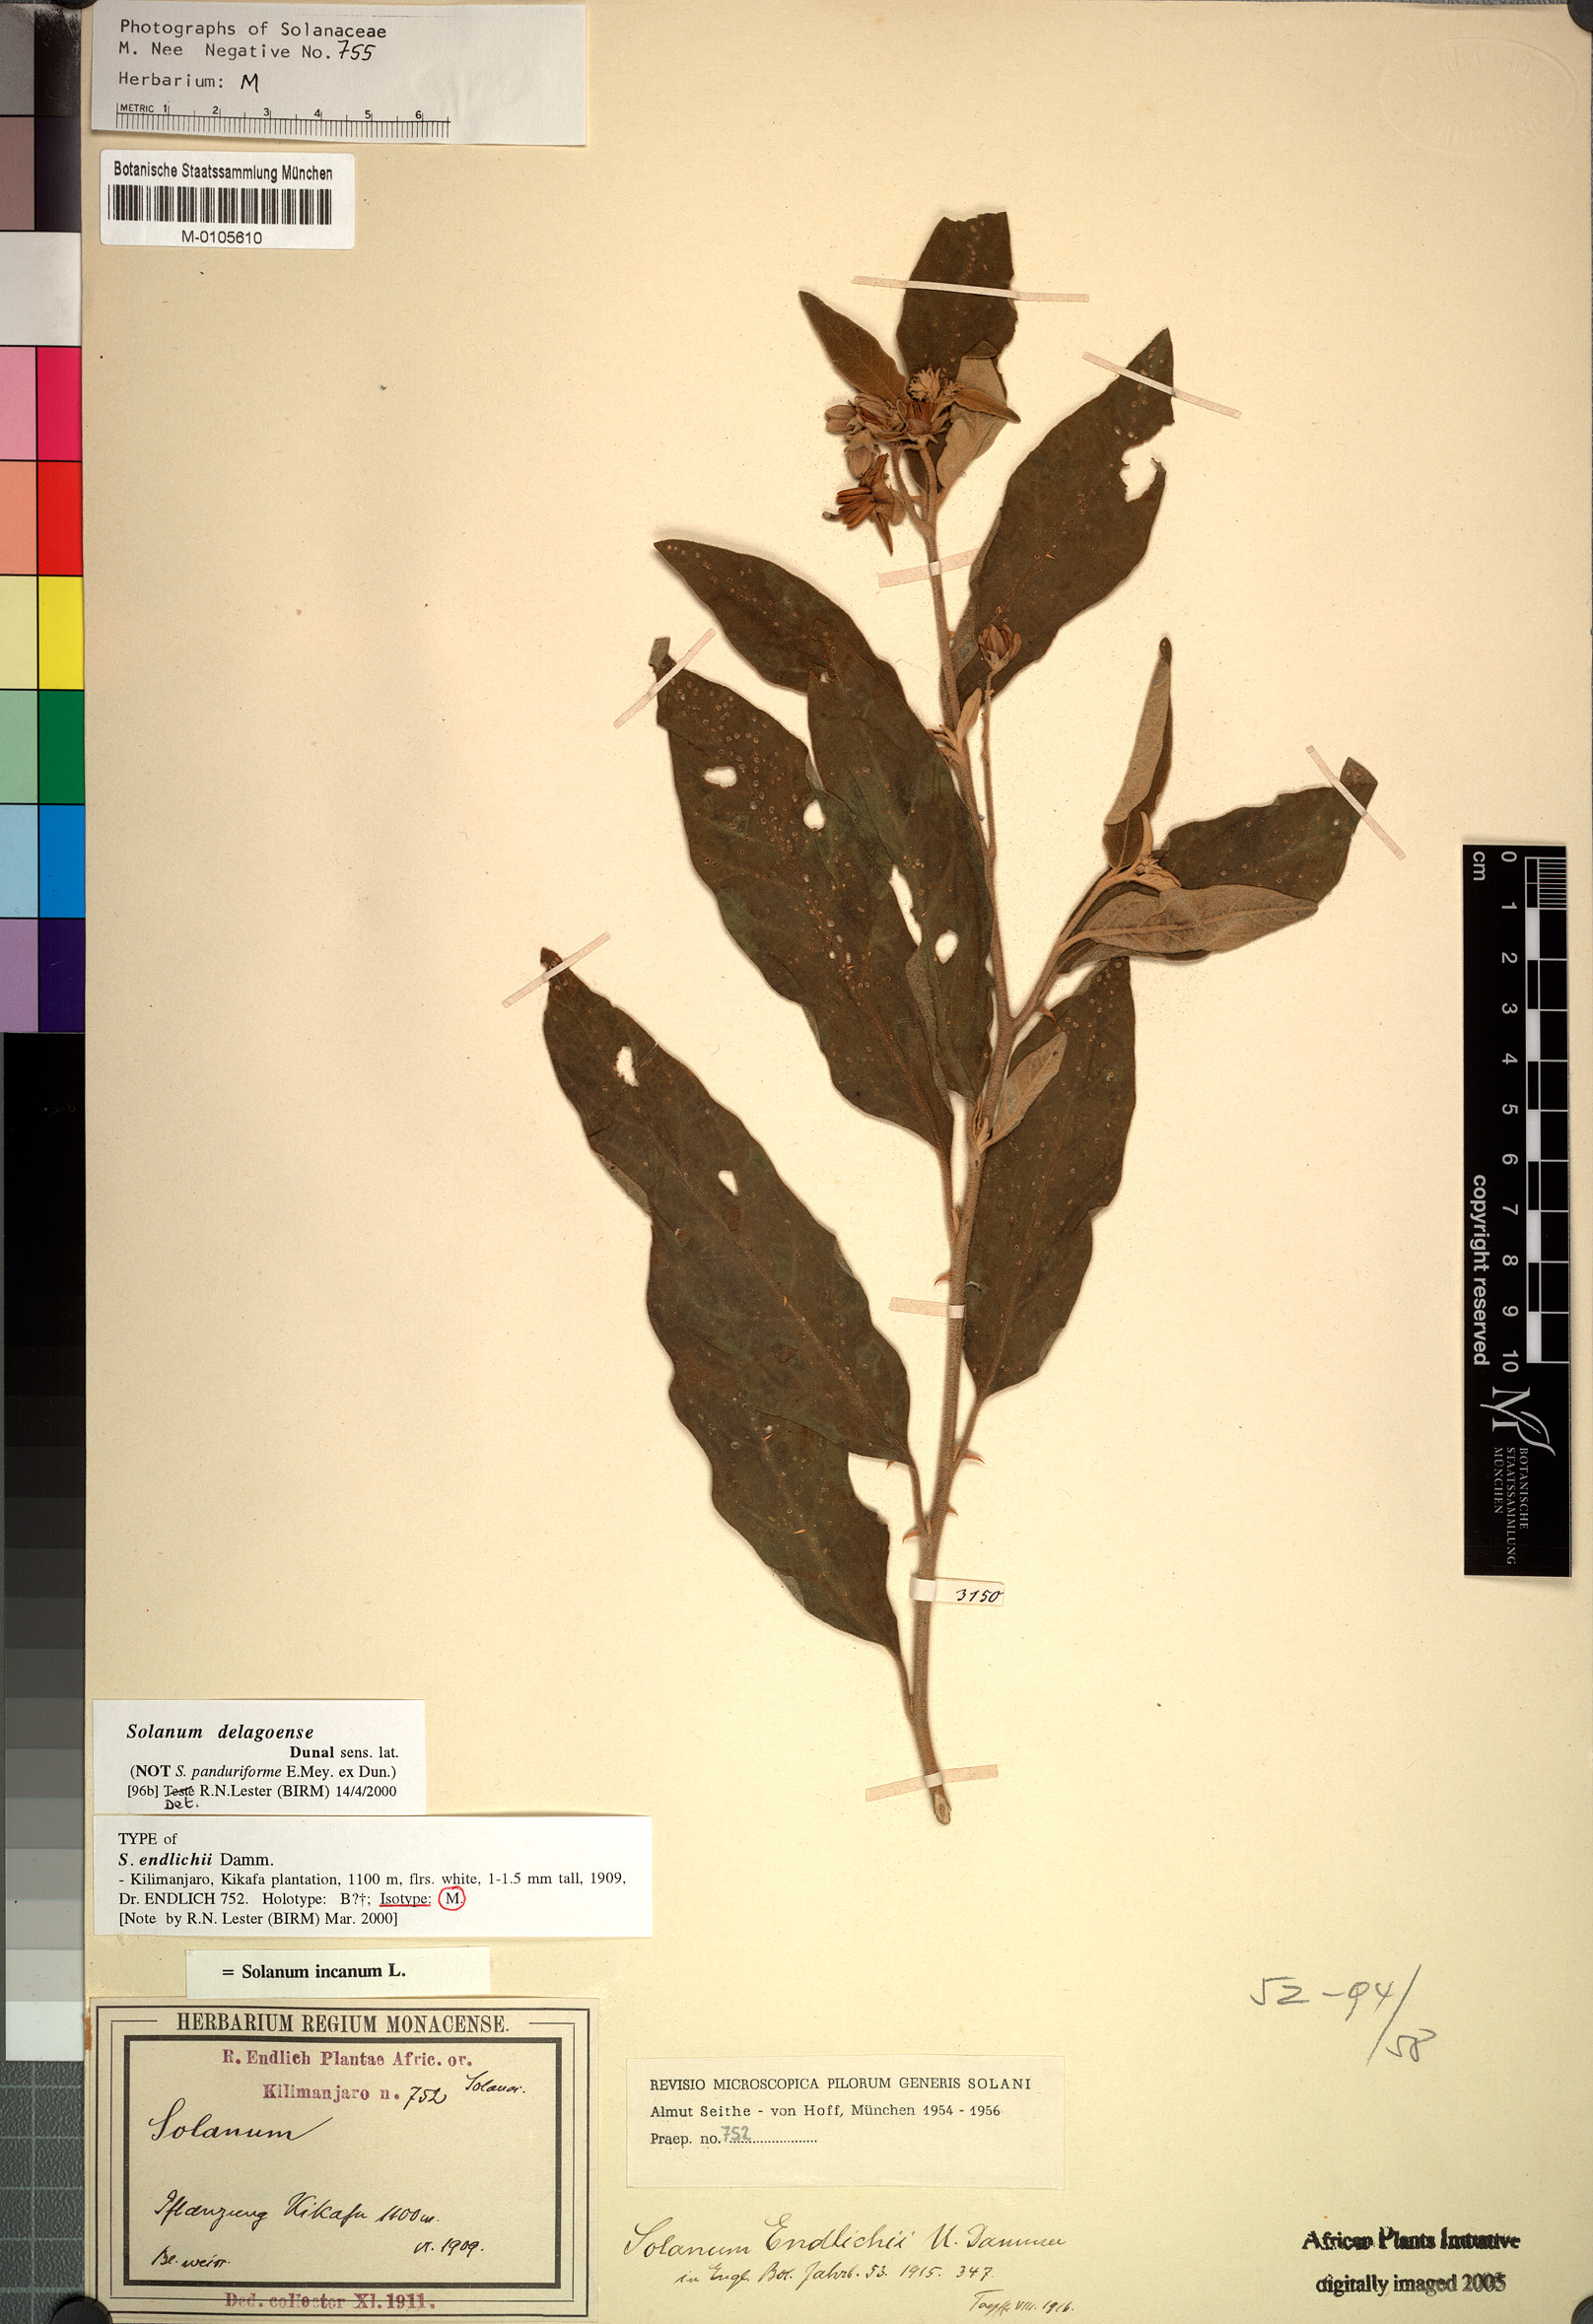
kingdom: Plantae
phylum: Tracheophyta
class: Magnoliopsida
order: Solanales
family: Solanaceae
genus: Solanum
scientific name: Solanum campylacanthum
